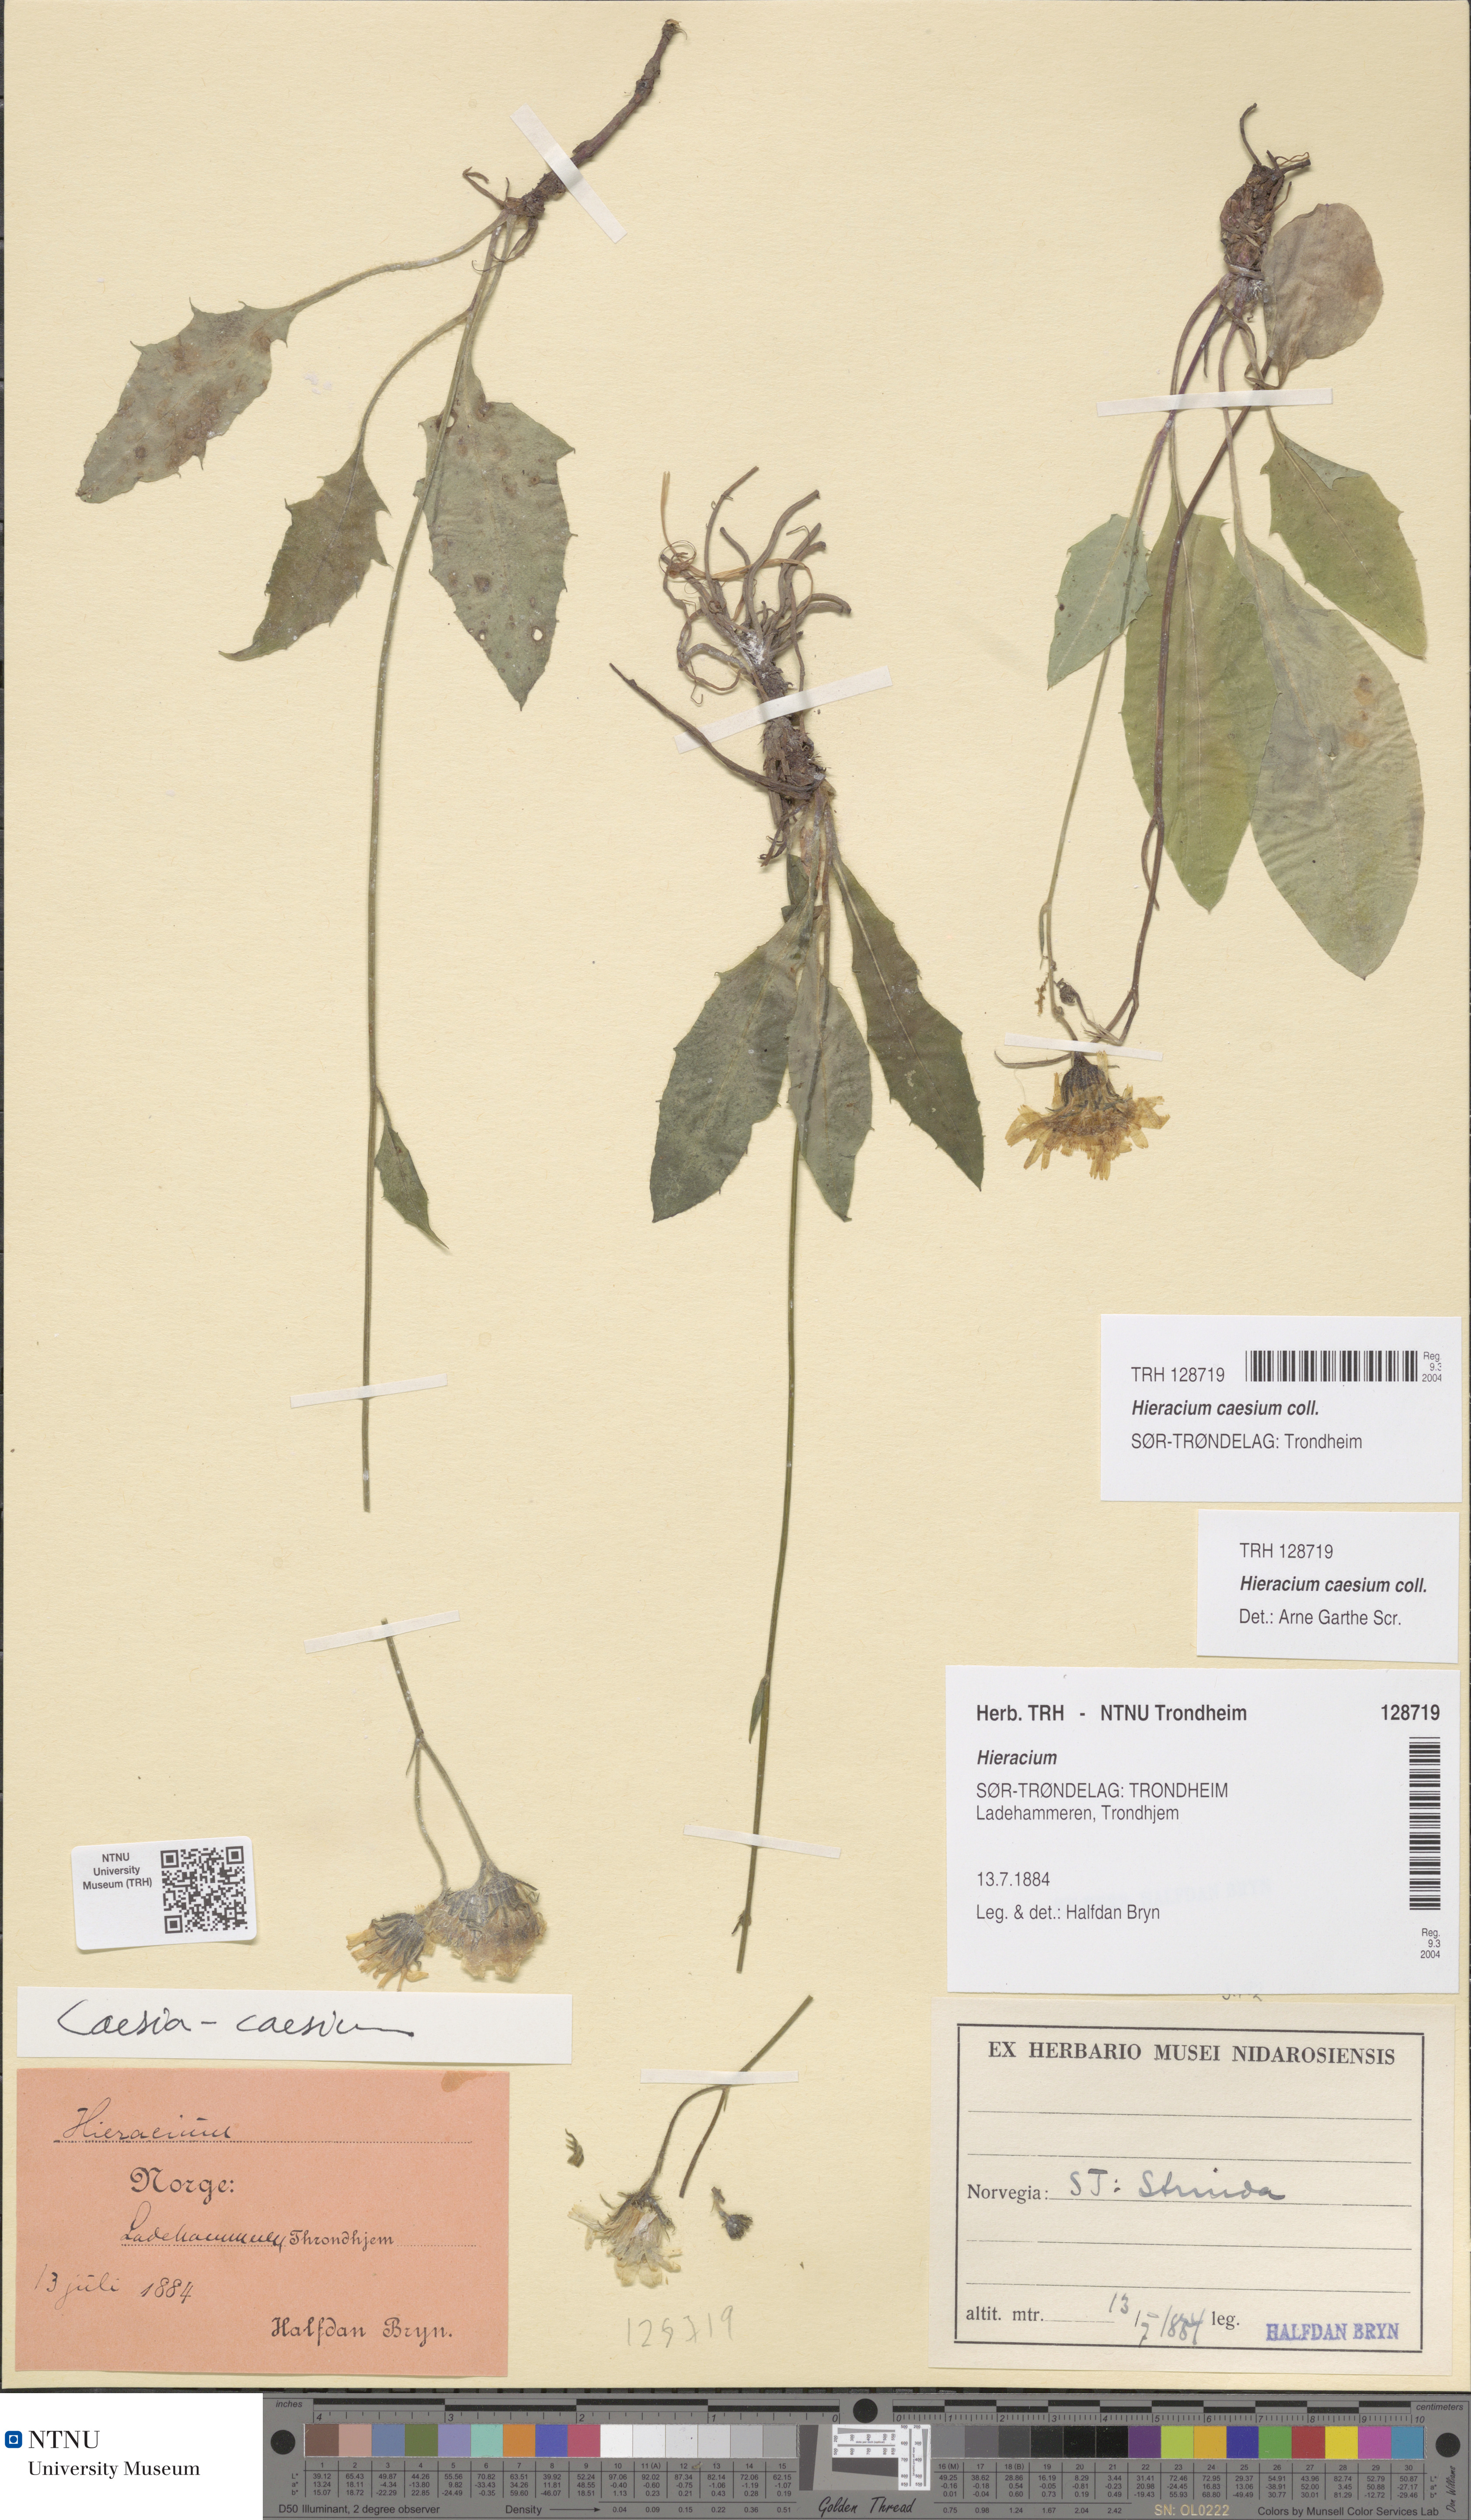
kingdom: Plantae
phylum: Tracheophyta
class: Magnoliopsida
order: Asterales
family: Asteraceae
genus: Hieracium
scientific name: Hieracium caesium
